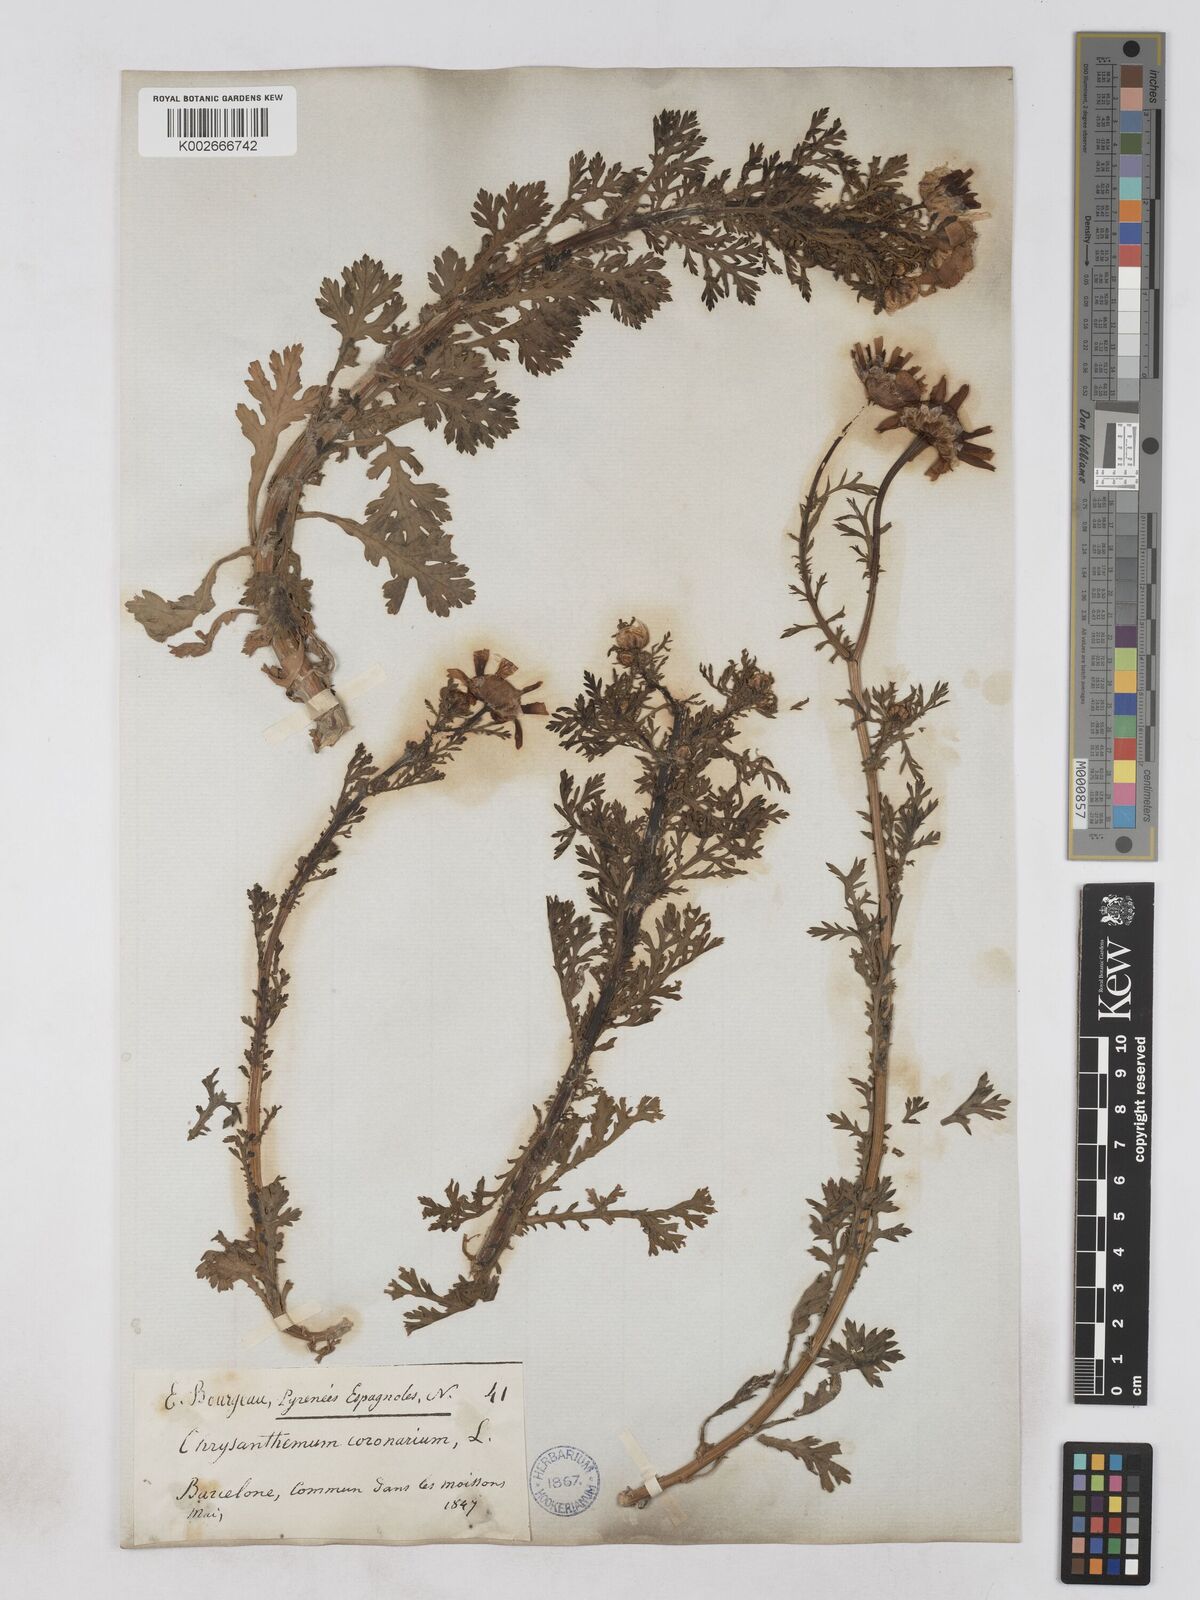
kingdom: Plantae
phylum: Tracheophyta
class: Magnoliopsida
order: Asterales
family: Asteraceae
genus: Glebionis
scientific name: Glebionis coronaria
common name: Crowndaisy
